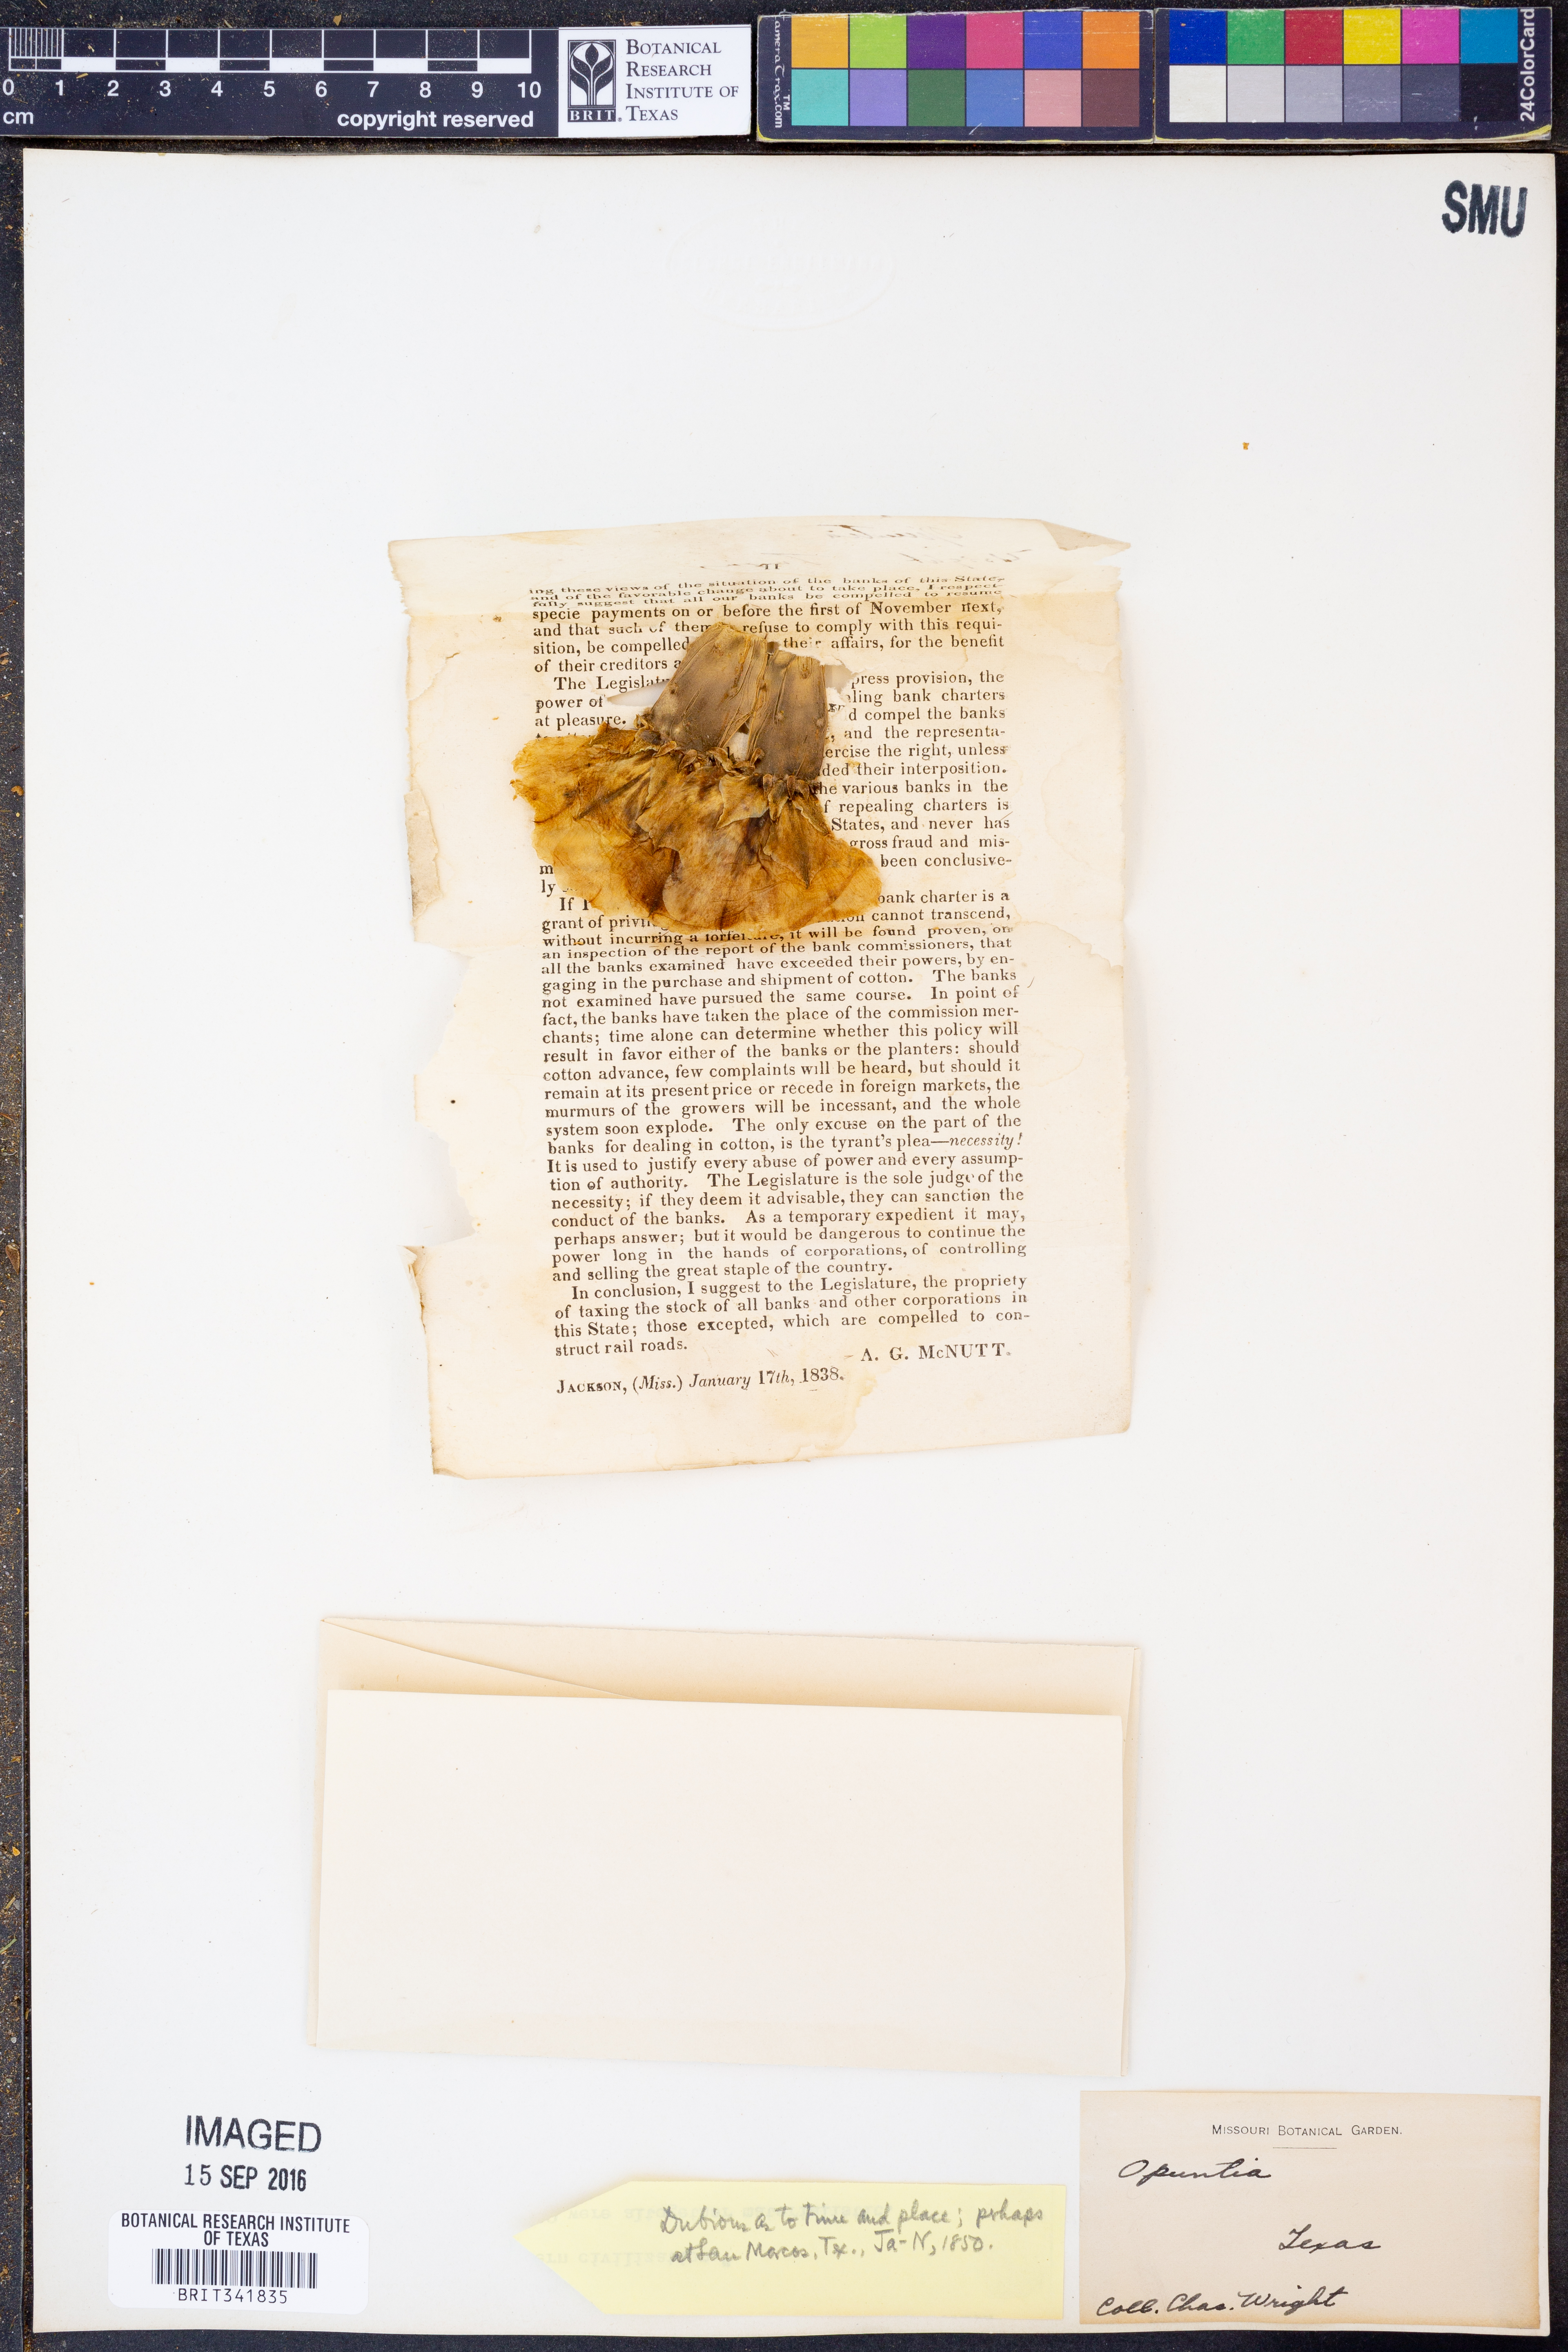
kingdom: Plantae
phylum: Tracheophyta
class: Magnoliopsida
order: Caryophyllales
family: Cactaceae
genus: Opuntia
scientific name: Opuntia
